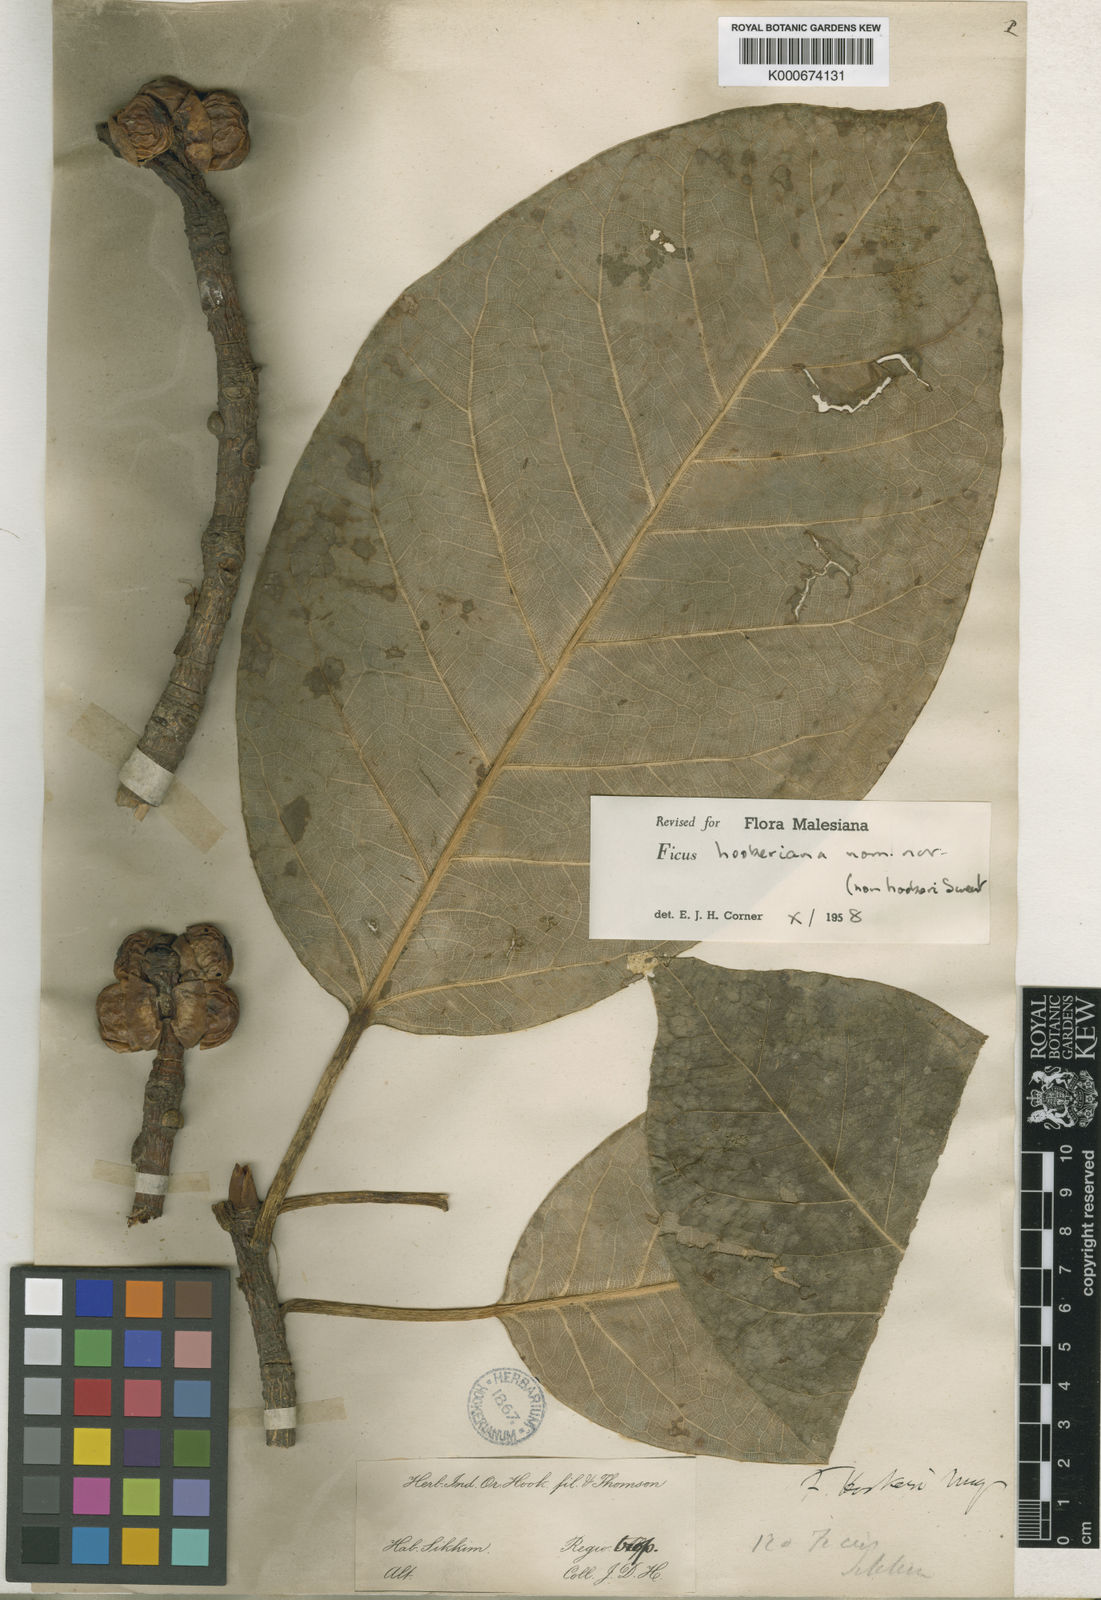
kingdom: Plantae
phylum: Tracheophyta
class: Magnoliopsida
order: Rosales
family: Moraceae
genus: Ficus
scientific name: Ficus hookeriana
